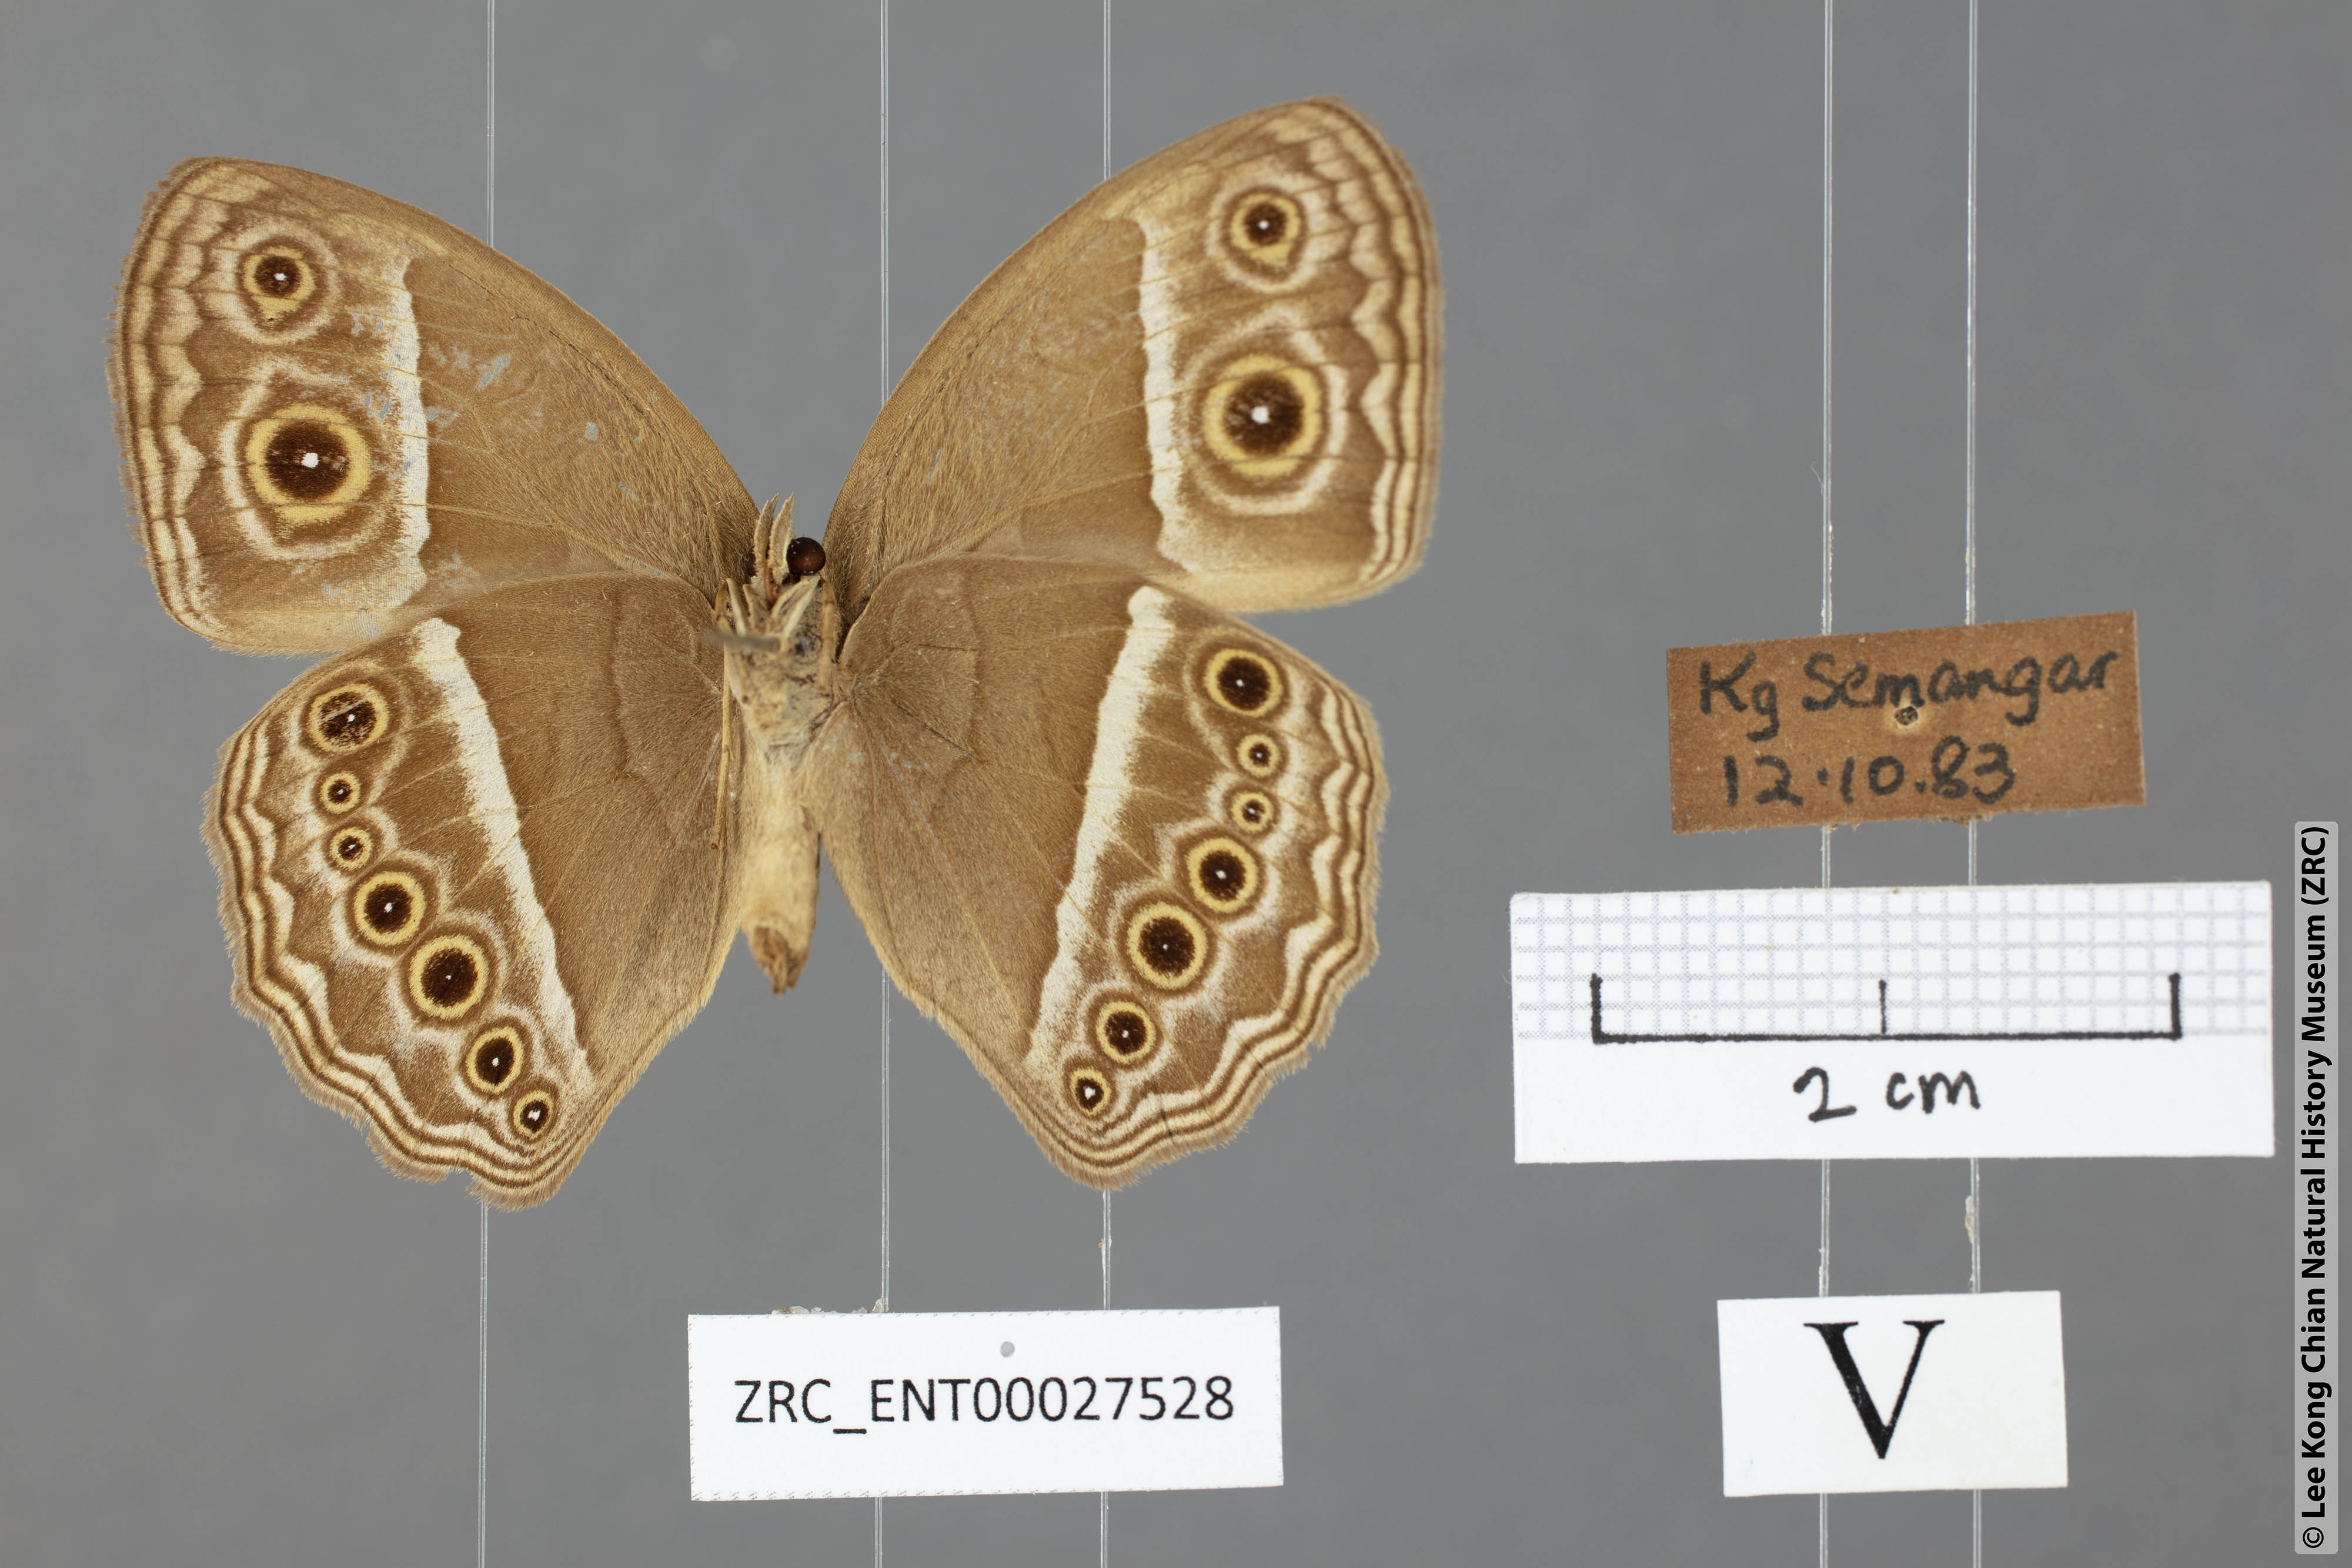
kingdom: Animalia
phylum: Arthropoda
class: Insecta
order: Lepidoptera
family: Nymphalidae
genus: Mycalesis
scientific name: Mycalesis perseoides
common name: Burmese bushbrown
